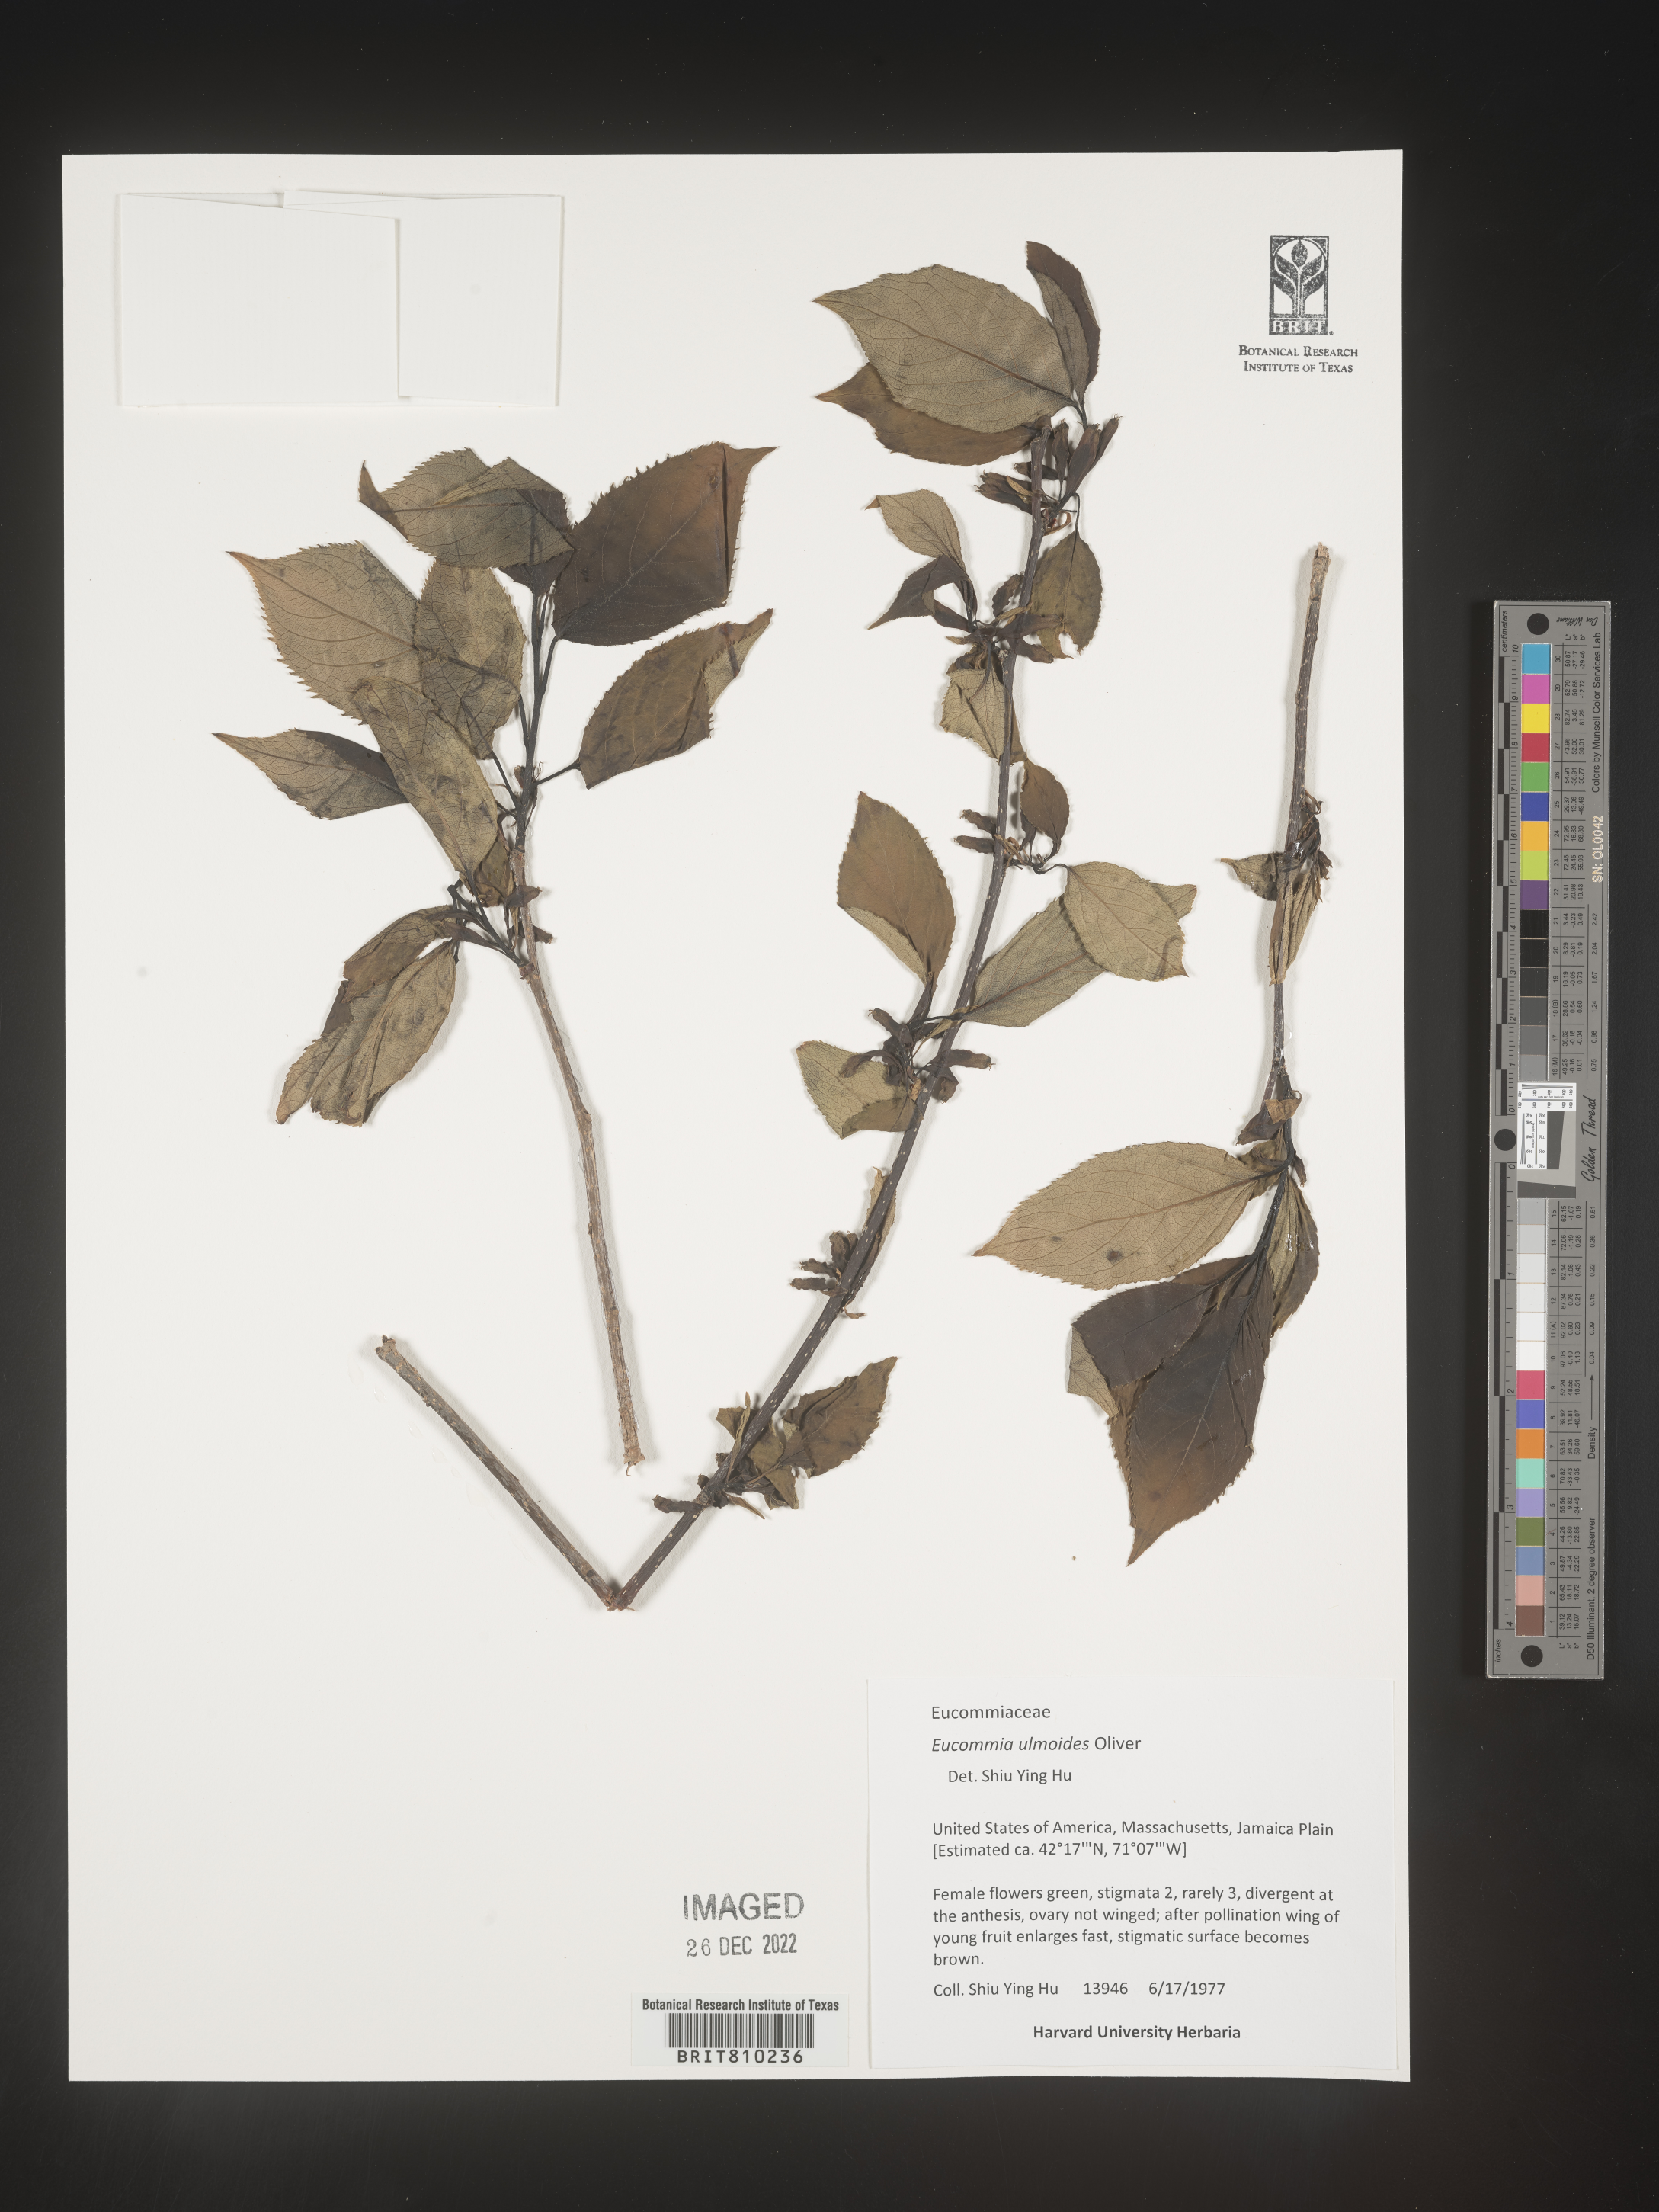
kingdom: Plantae
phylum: Tracheophyta
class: Magnoliopsida
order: Garryales
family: Eucommiaceae
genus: Eucommia
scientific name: Eucommia
